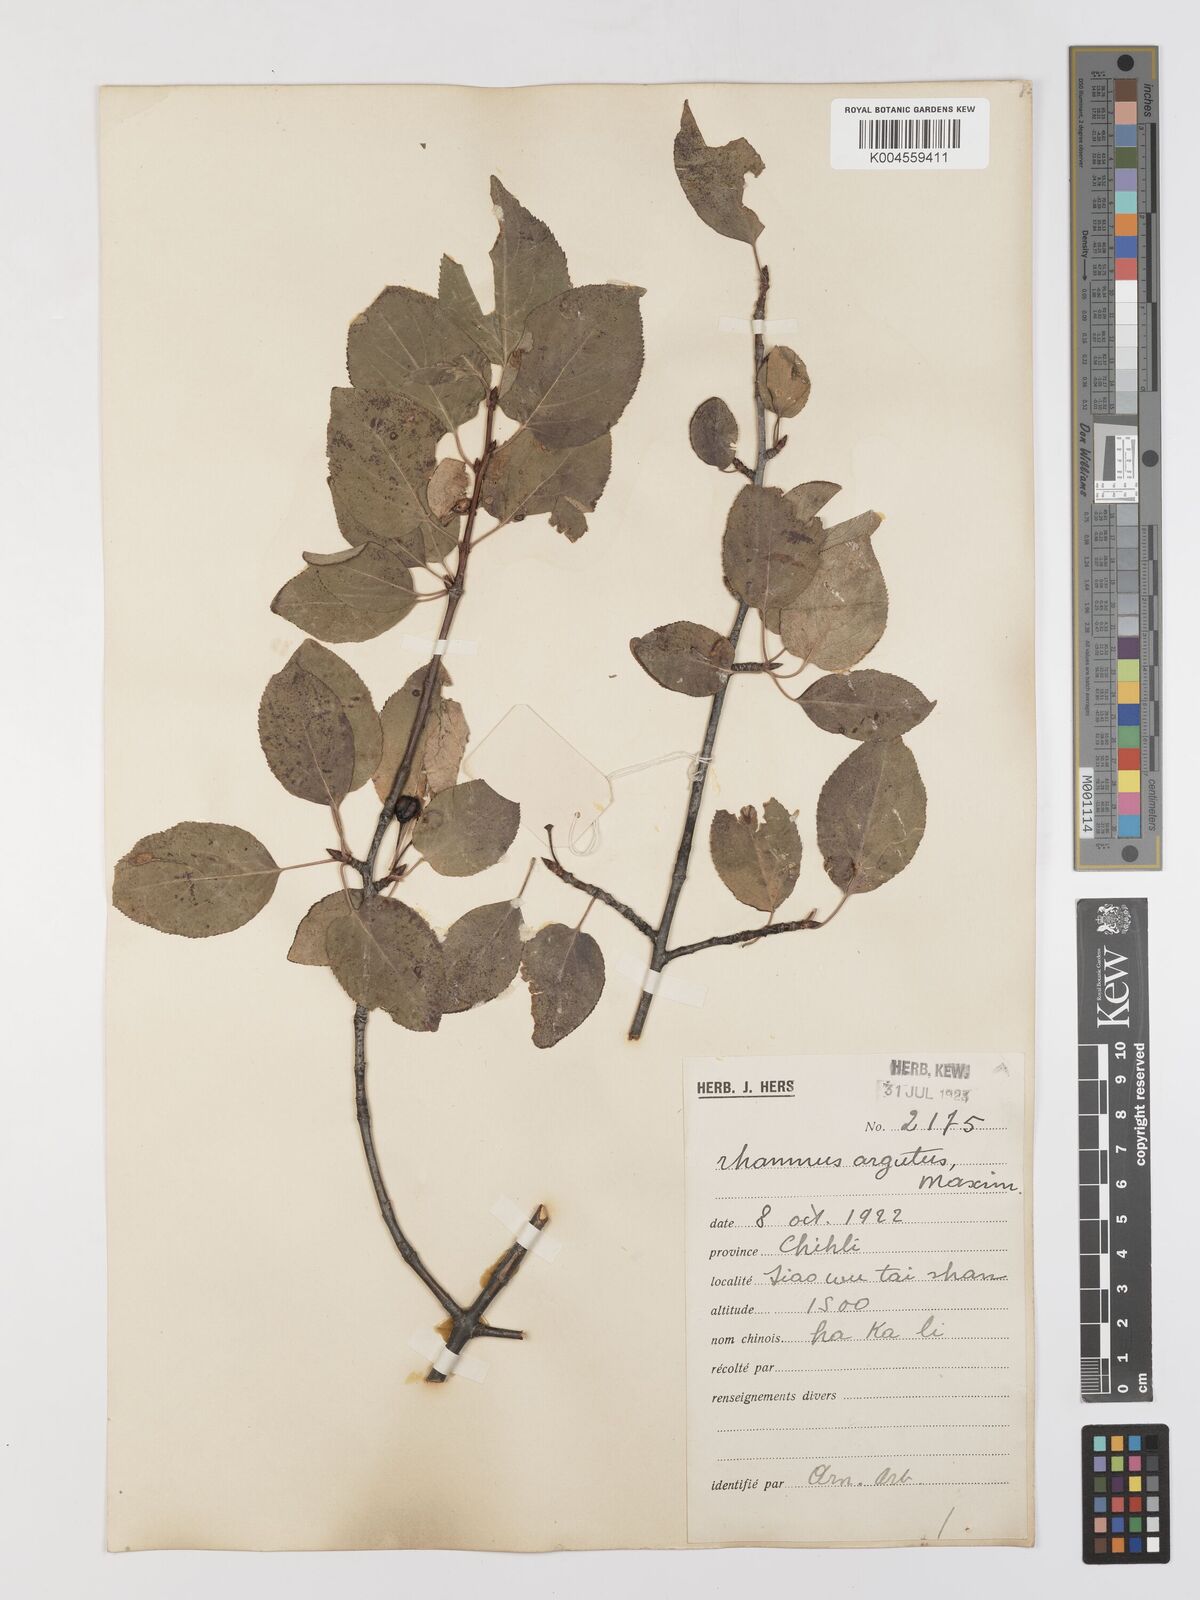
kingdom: Plantae
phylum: Tracheophyta
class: Magnoliopsida
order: Rosales
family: Rhamnaceae
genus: Rhamnus
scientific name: Rhamnus arguta
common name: Sharp-tooth buckthorn
